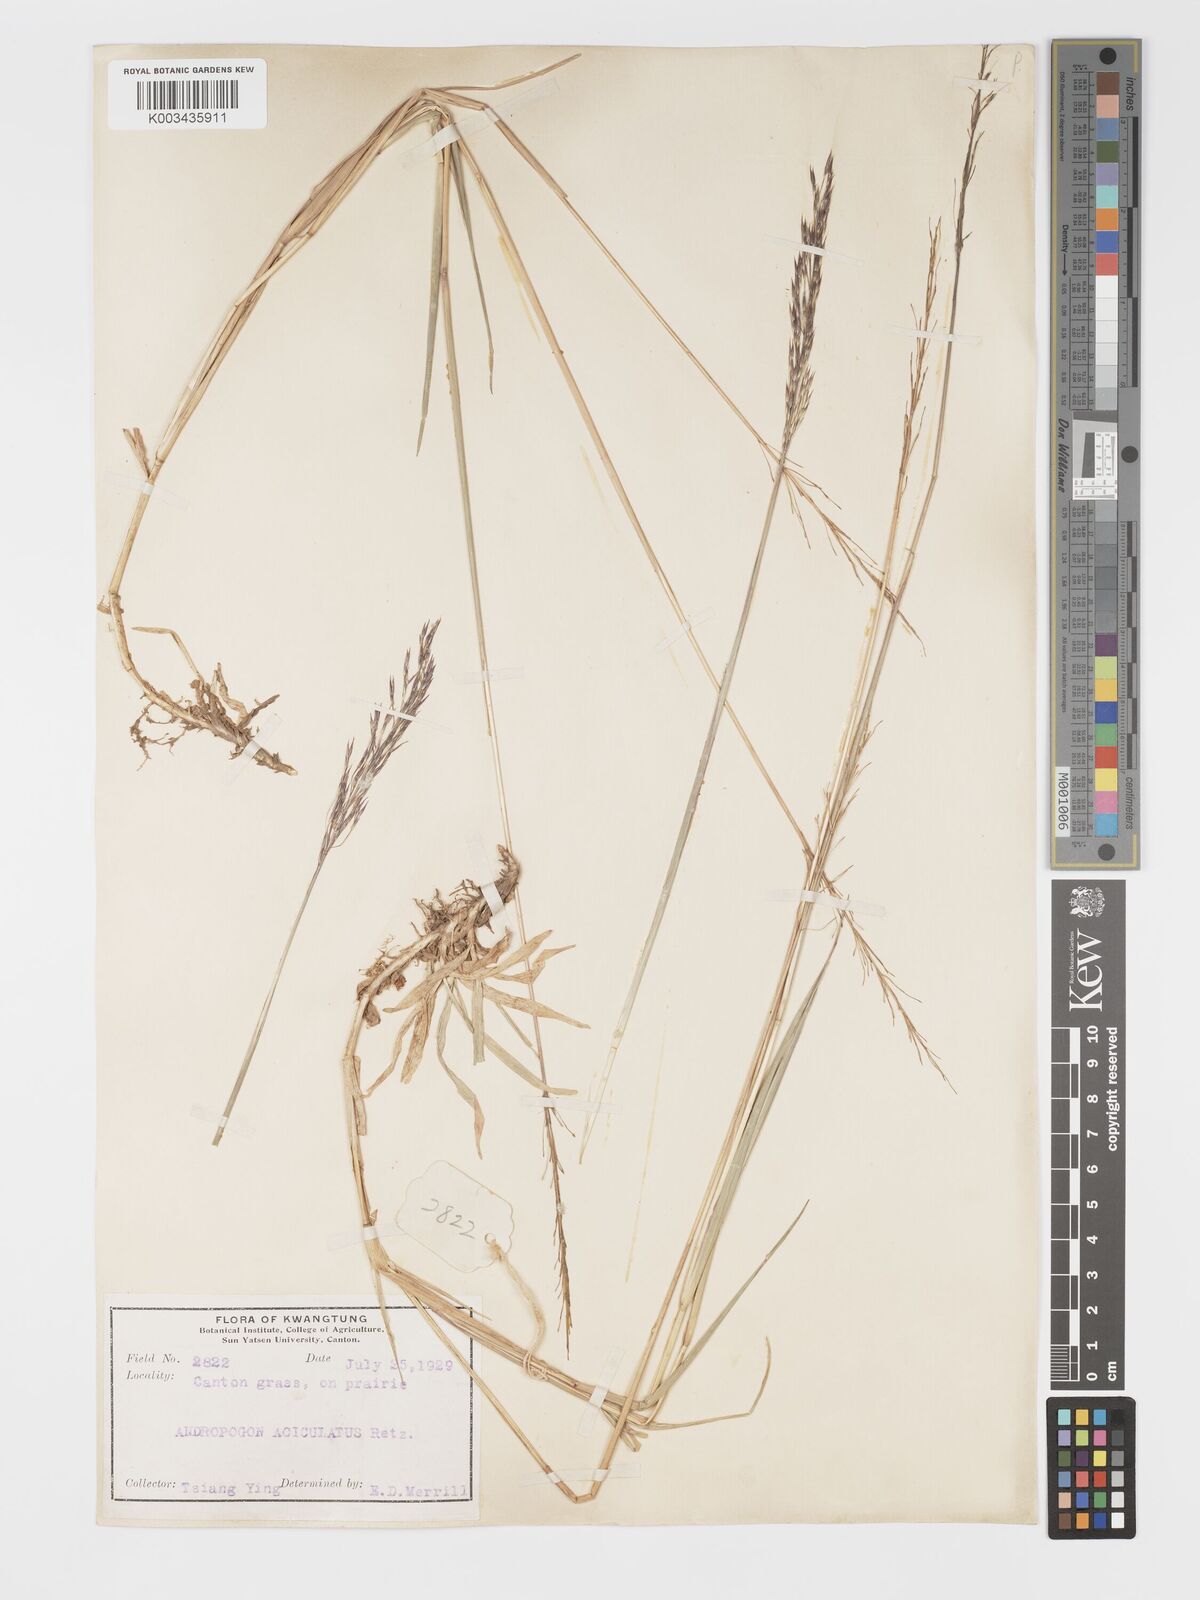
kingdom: Plantae
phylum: Tracheophyta
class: Liliopsida
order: Poales
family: Poaceae
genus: Chrysopogon
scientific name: Chrysopogon aciculatus
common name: Pilipiliula
